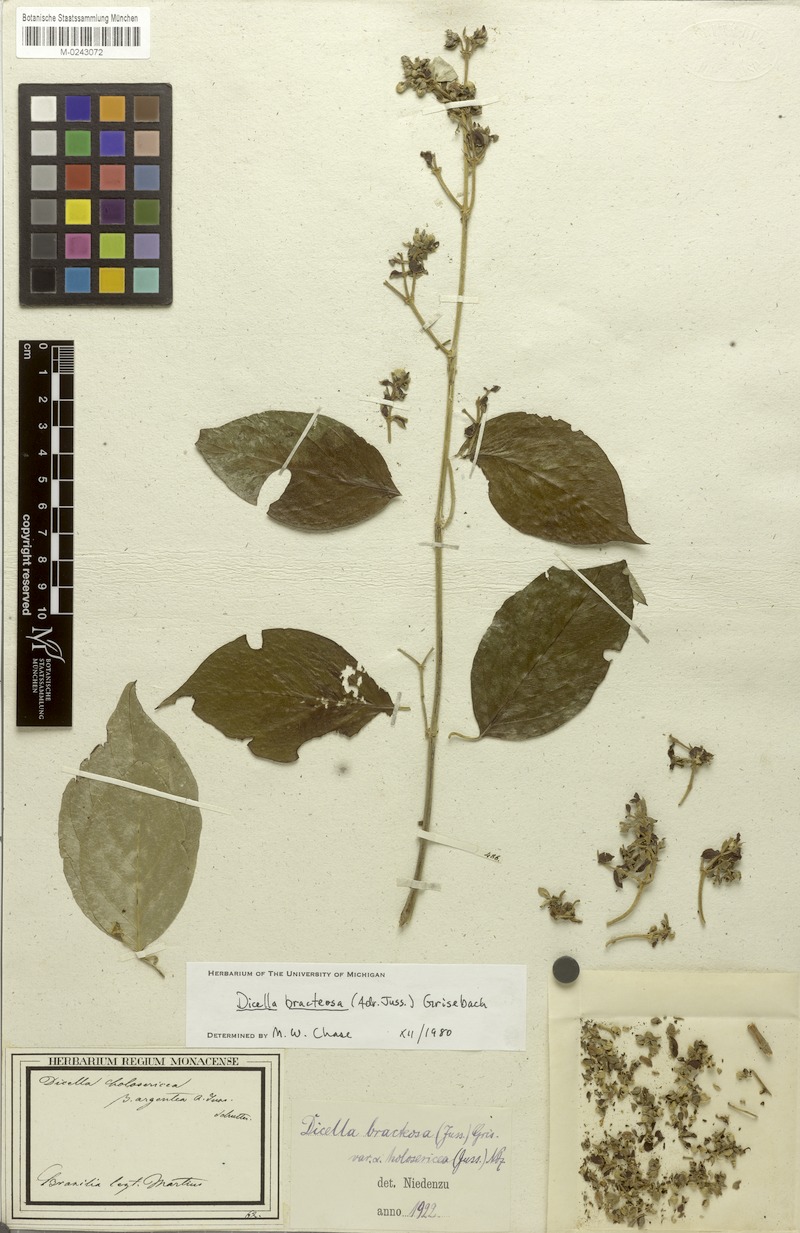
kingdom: Plantae
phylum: Tracheophyta
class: Magnoliopsida
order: Malpighiales
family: Malpighiaceae
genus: Dicella
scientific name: Dicella bracteosa
